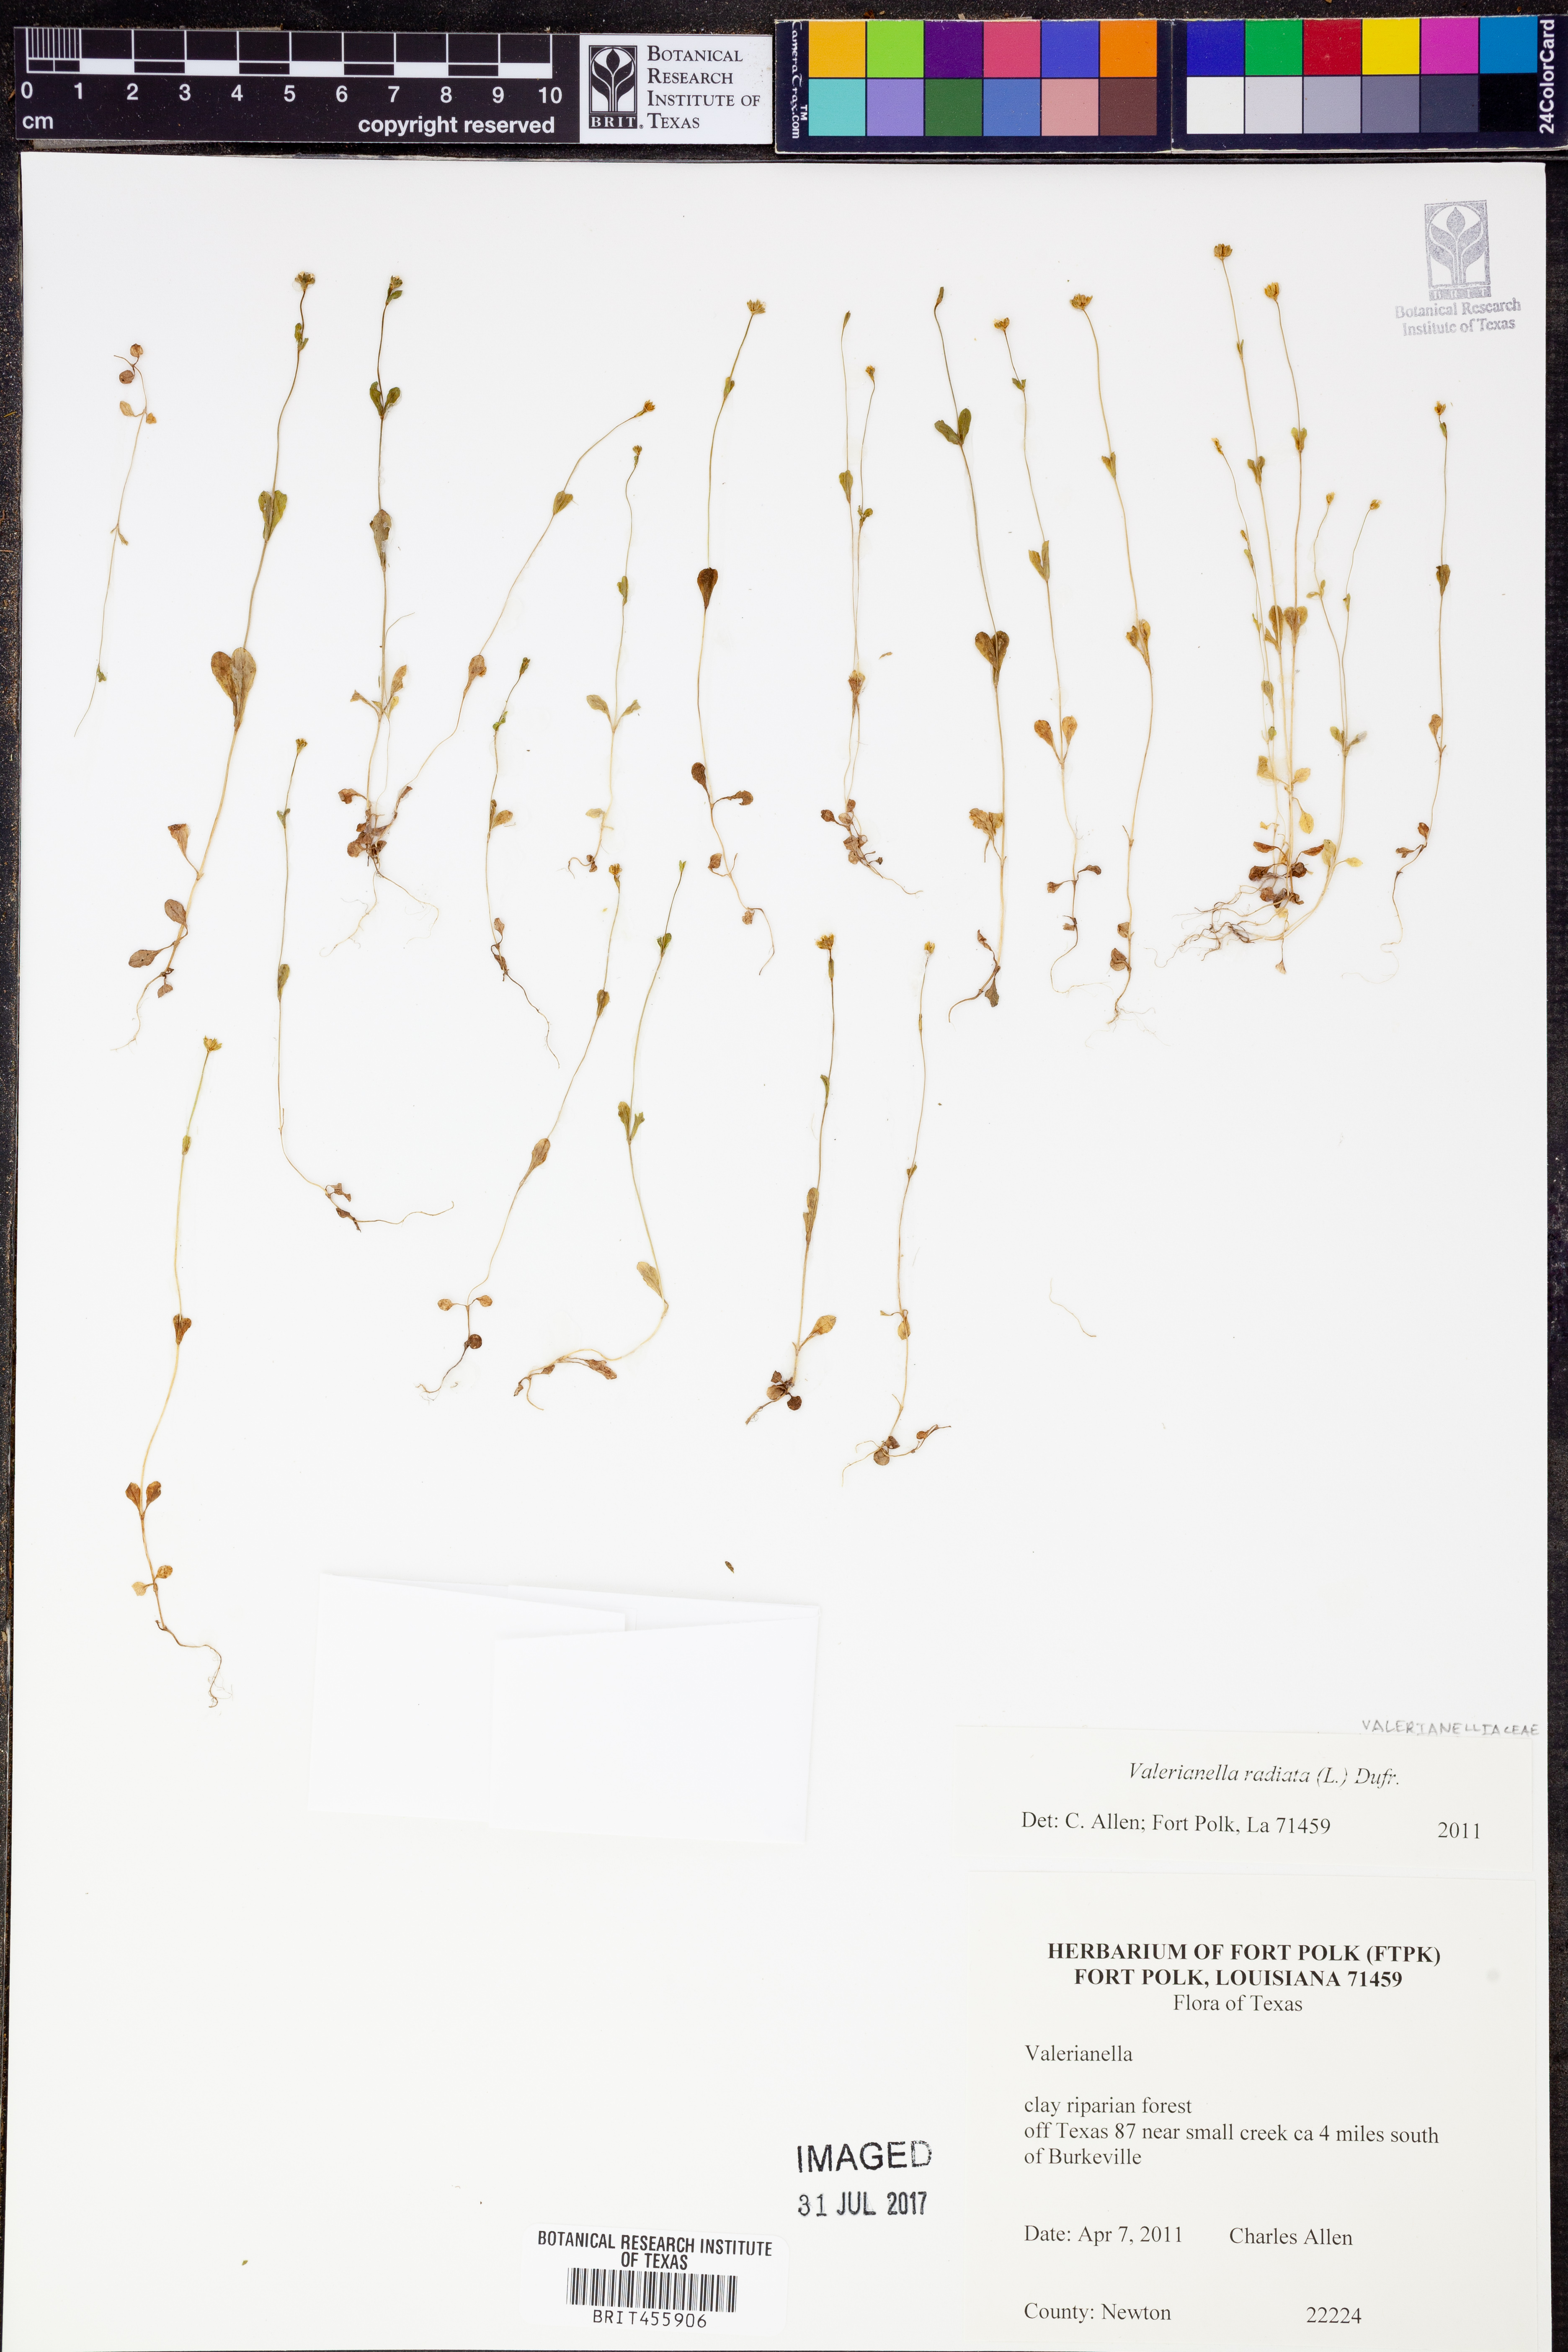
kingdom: Plantae
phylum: Tracheophyta
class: Magnoliopsida
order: Dipsacales
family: Caprifoliaceae
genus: Valerianella
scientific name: Valerianella radiata
